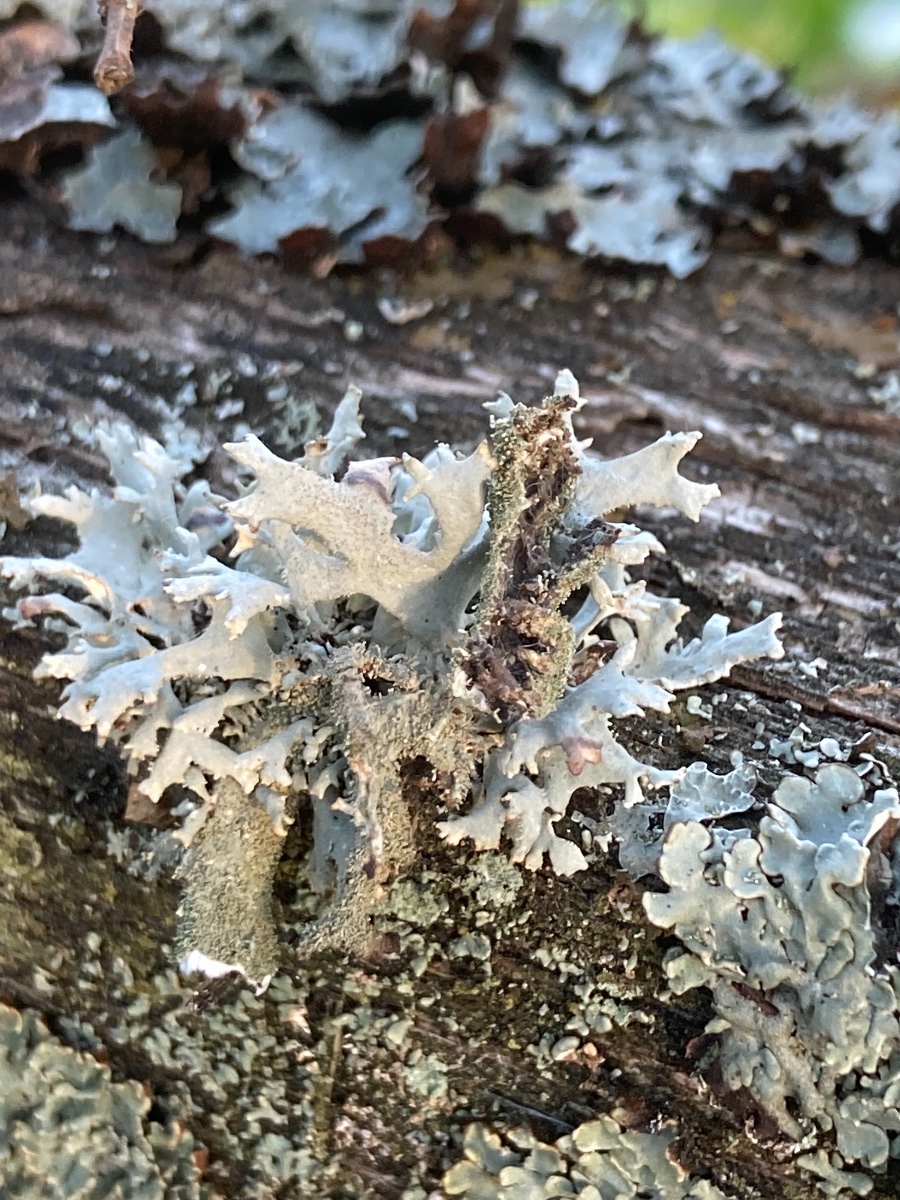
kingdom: Fungi
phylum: Ascomycota
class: Lecanoromycetes
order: Lecanorales
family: Parmeliaceae
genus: Pseudevernia
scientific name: Pseudevernia furfuracea
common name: grå fyrrelav
